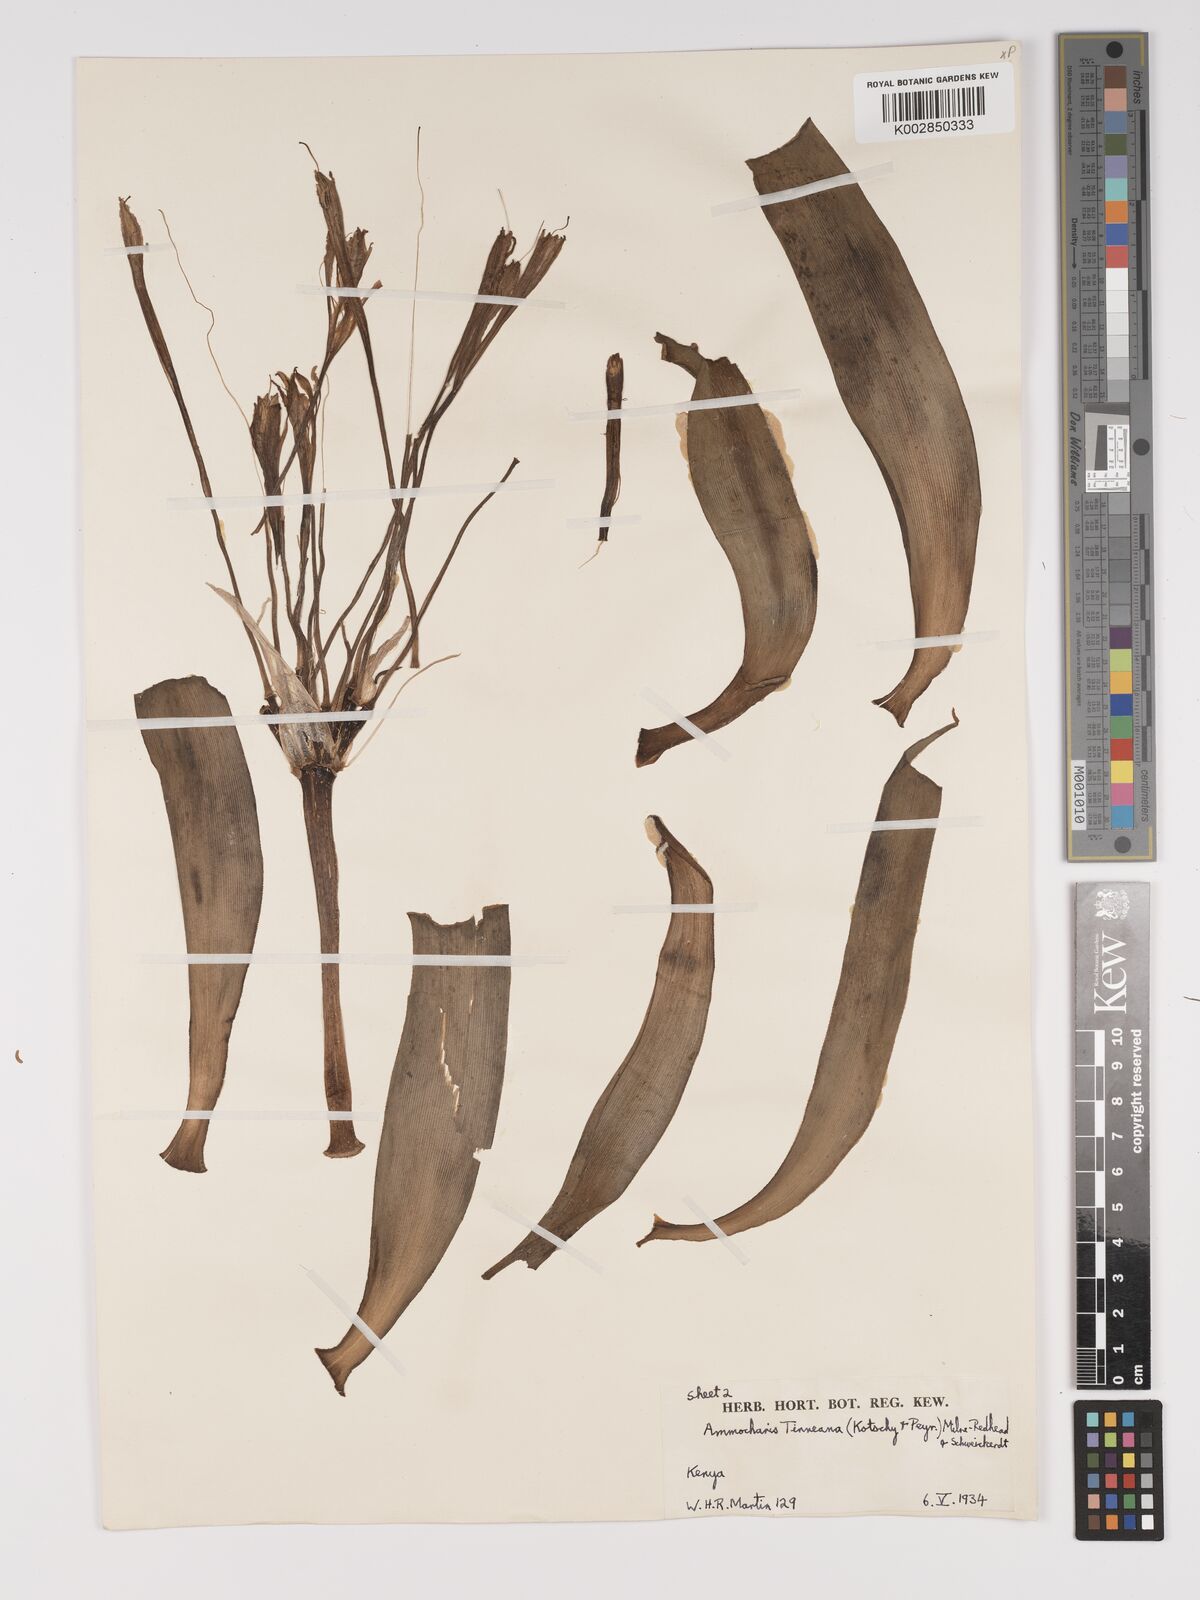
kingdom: Plantae
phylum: Tracheophyta
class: Liliopsida
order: Asparagales
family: Amaryllidaceae
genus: Ammocharis
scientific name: Ammocharis tinneana
